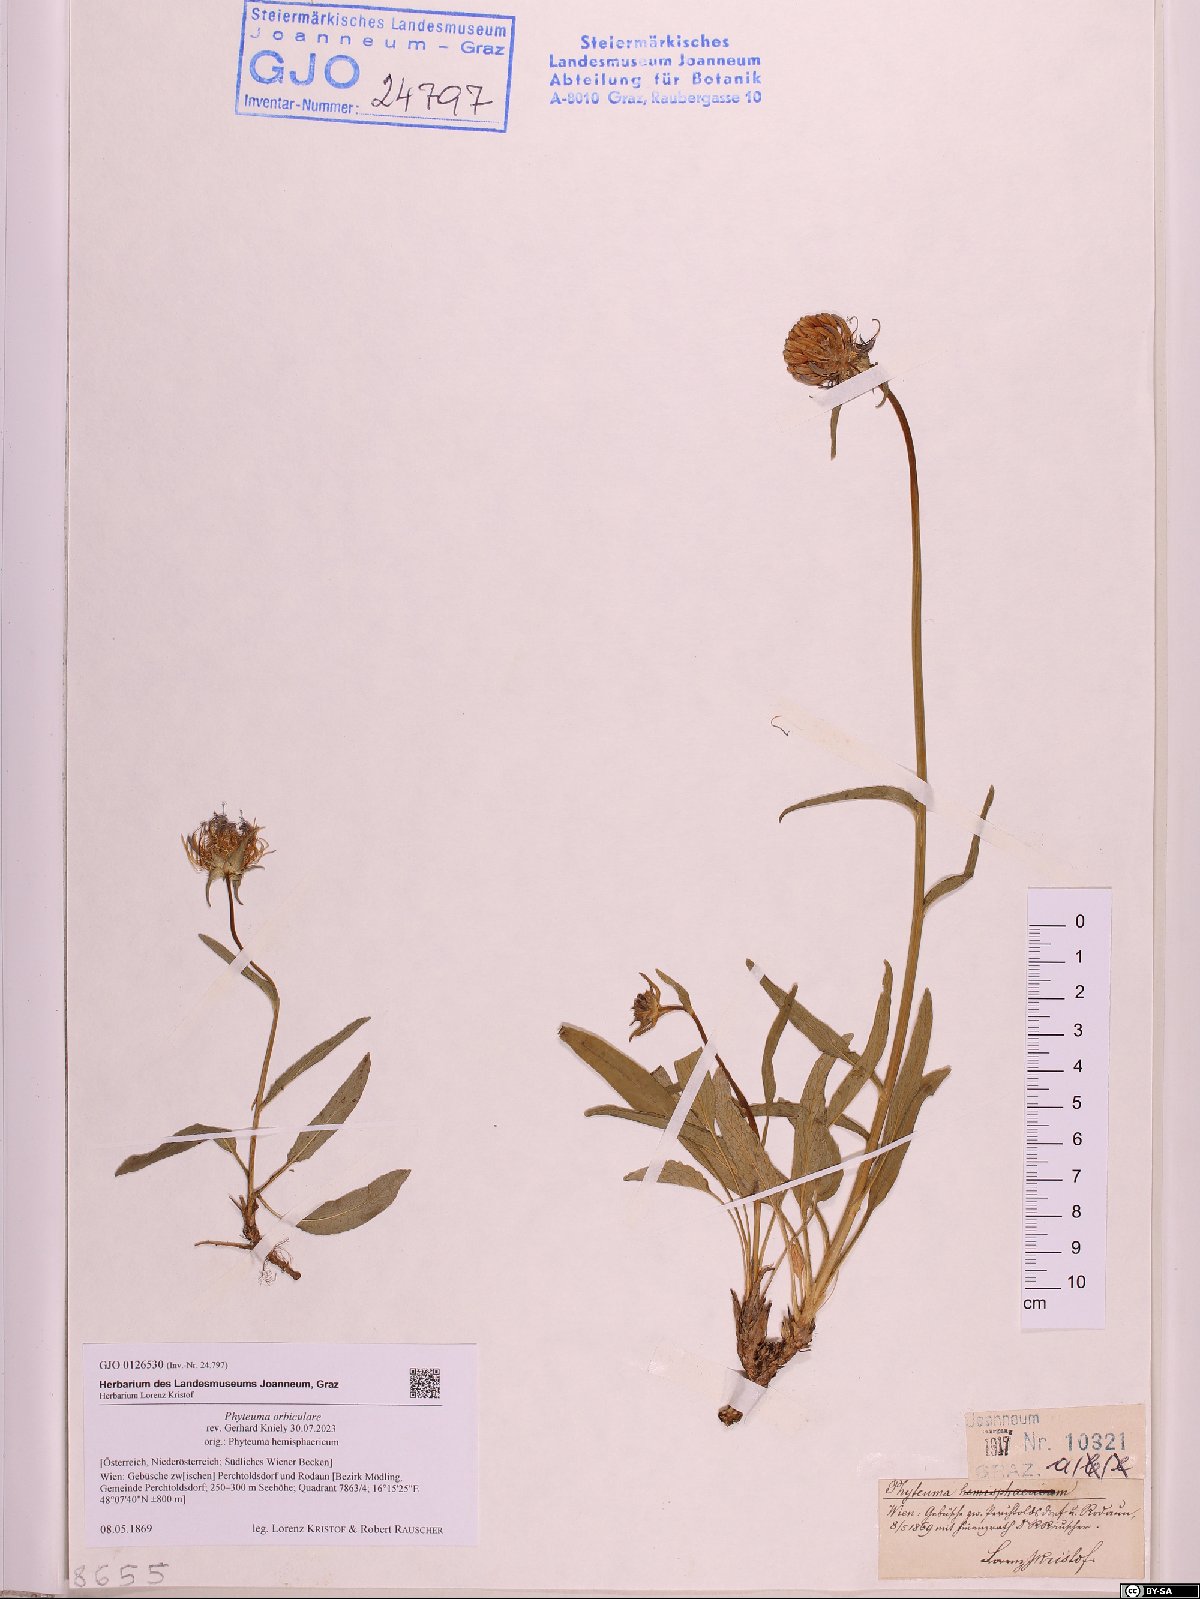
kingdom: Plantae
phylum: Tracheophyta
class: Magnoliopsida
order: Asterales
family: Campanulaceae
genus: Phyteuma
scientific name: Phyteuma orbiculare
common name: Round-headed rampion
